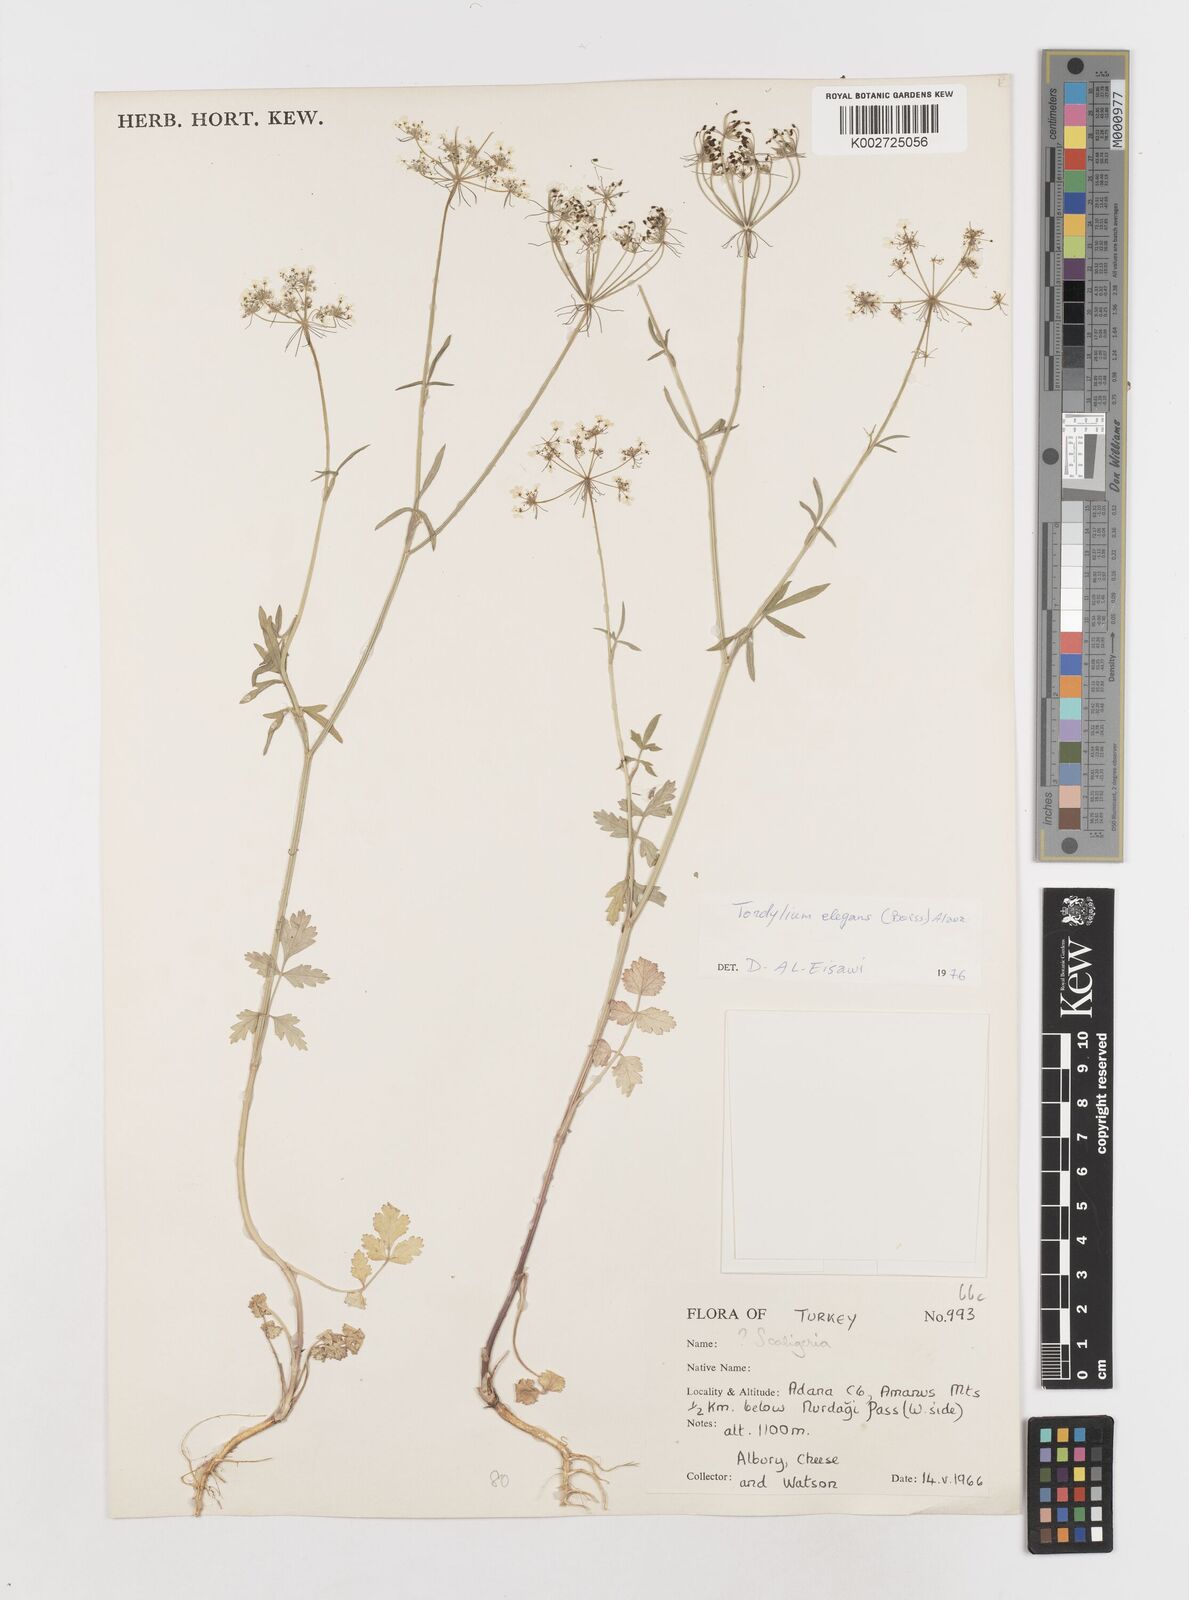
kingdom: Plantae
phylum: Tracheophyta
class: Magnoliopsida
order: Apiales
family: Apiaceae
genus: Ainsworthia
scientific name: Ainsworthia elegans
